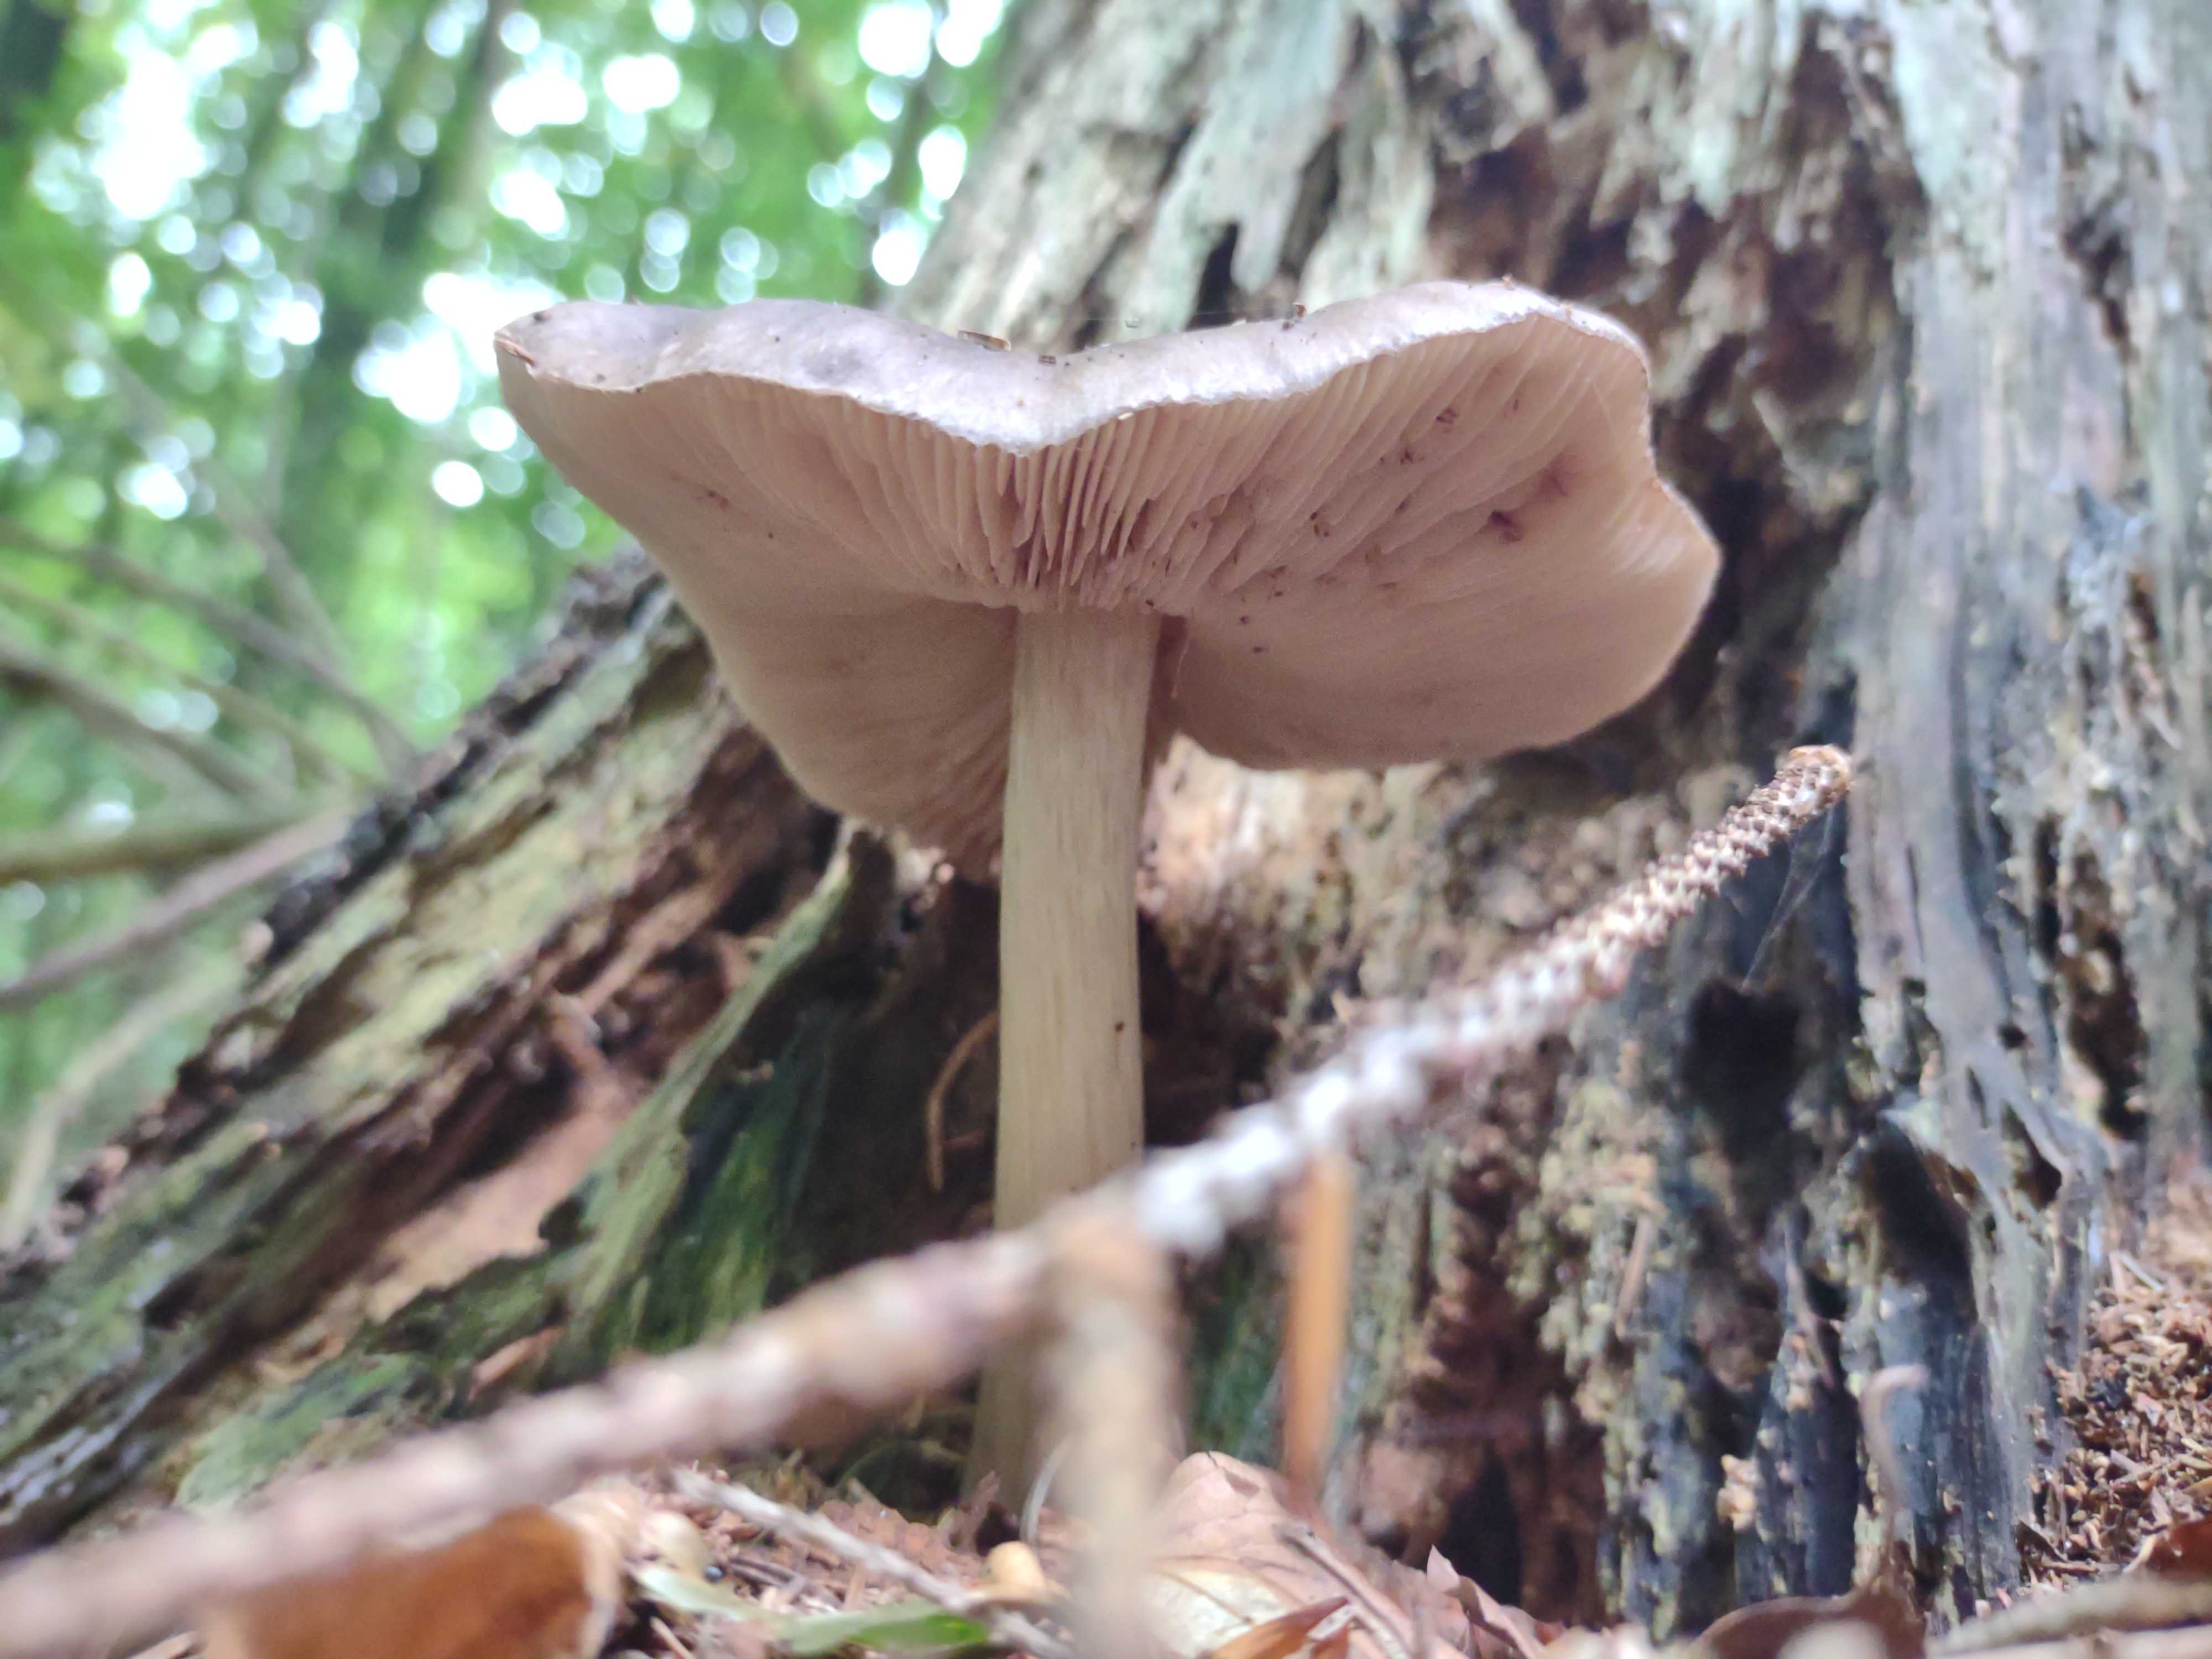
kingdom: Fungi
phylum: Basidiomycota
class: Agaricomycetes
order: Agaricales
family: Pluteaceae
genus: Pluteus
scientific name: Pluteus
